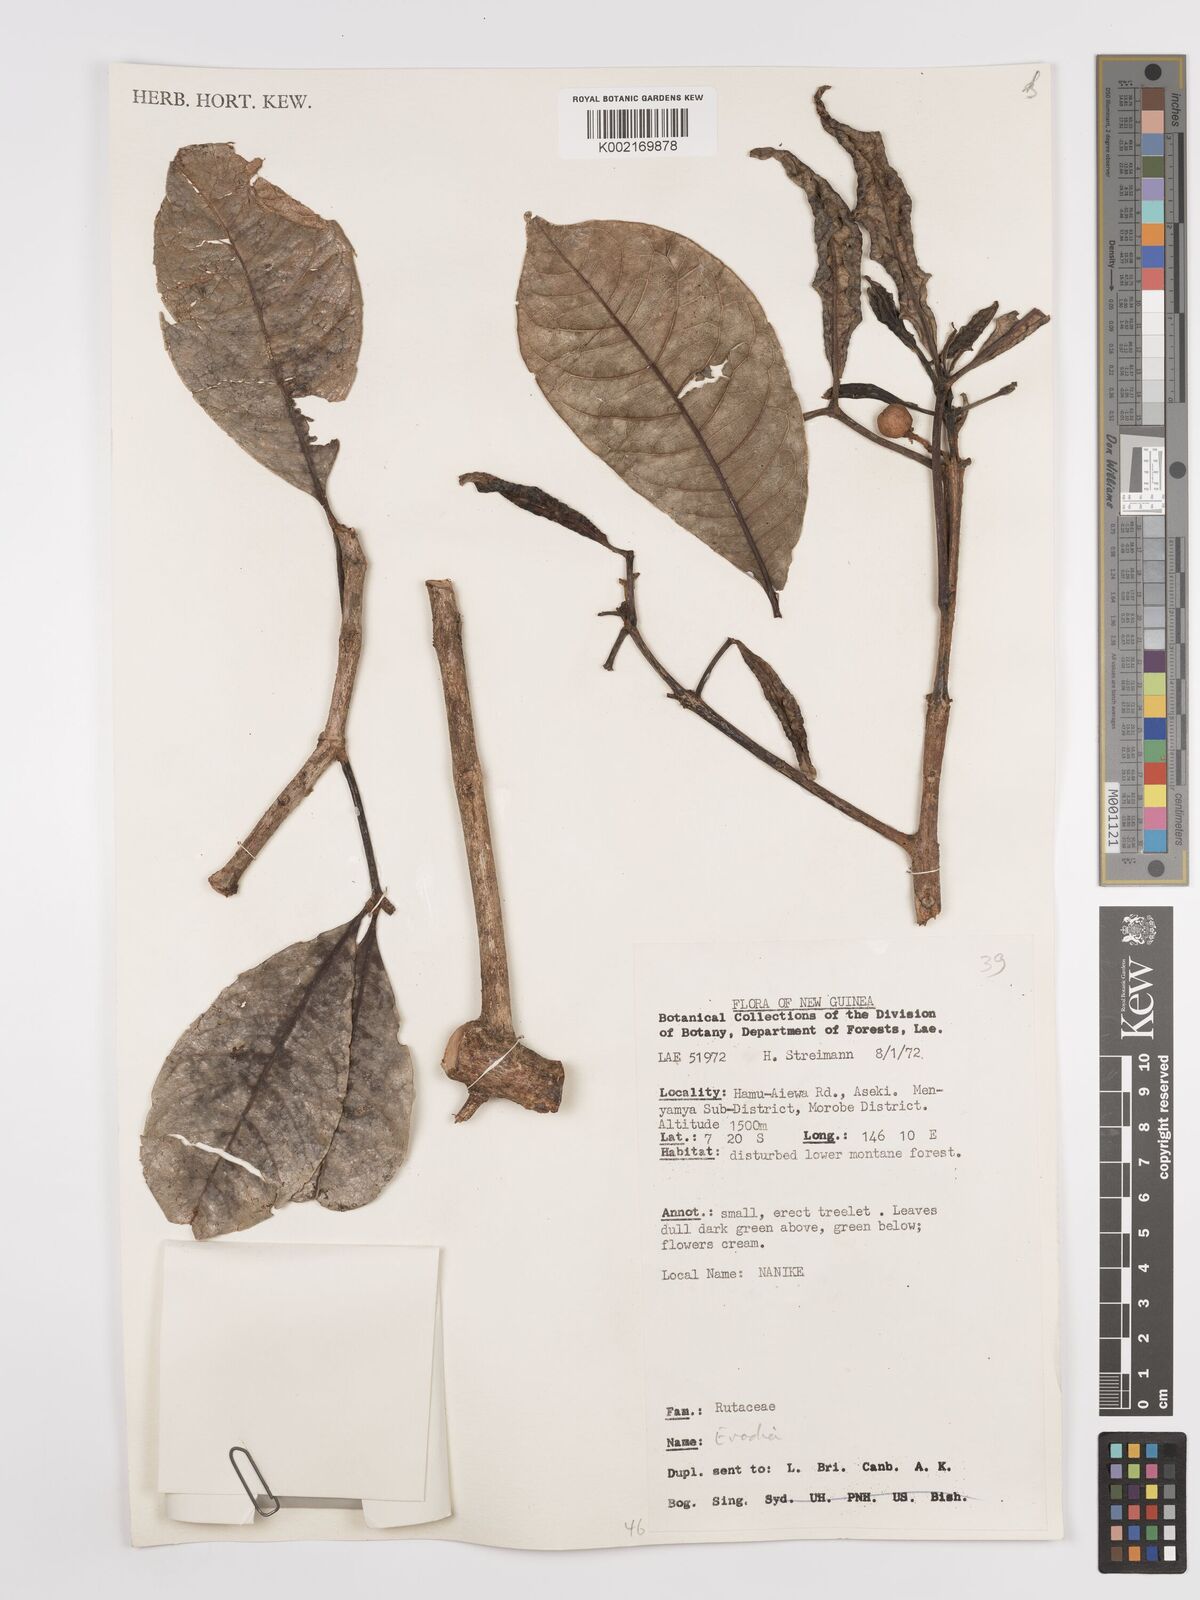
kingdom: Plantae
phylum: Tracheophyta
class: Magnoliopsida
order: Sapindales
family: Rutaceae
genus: Euodia
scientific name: Euodia
